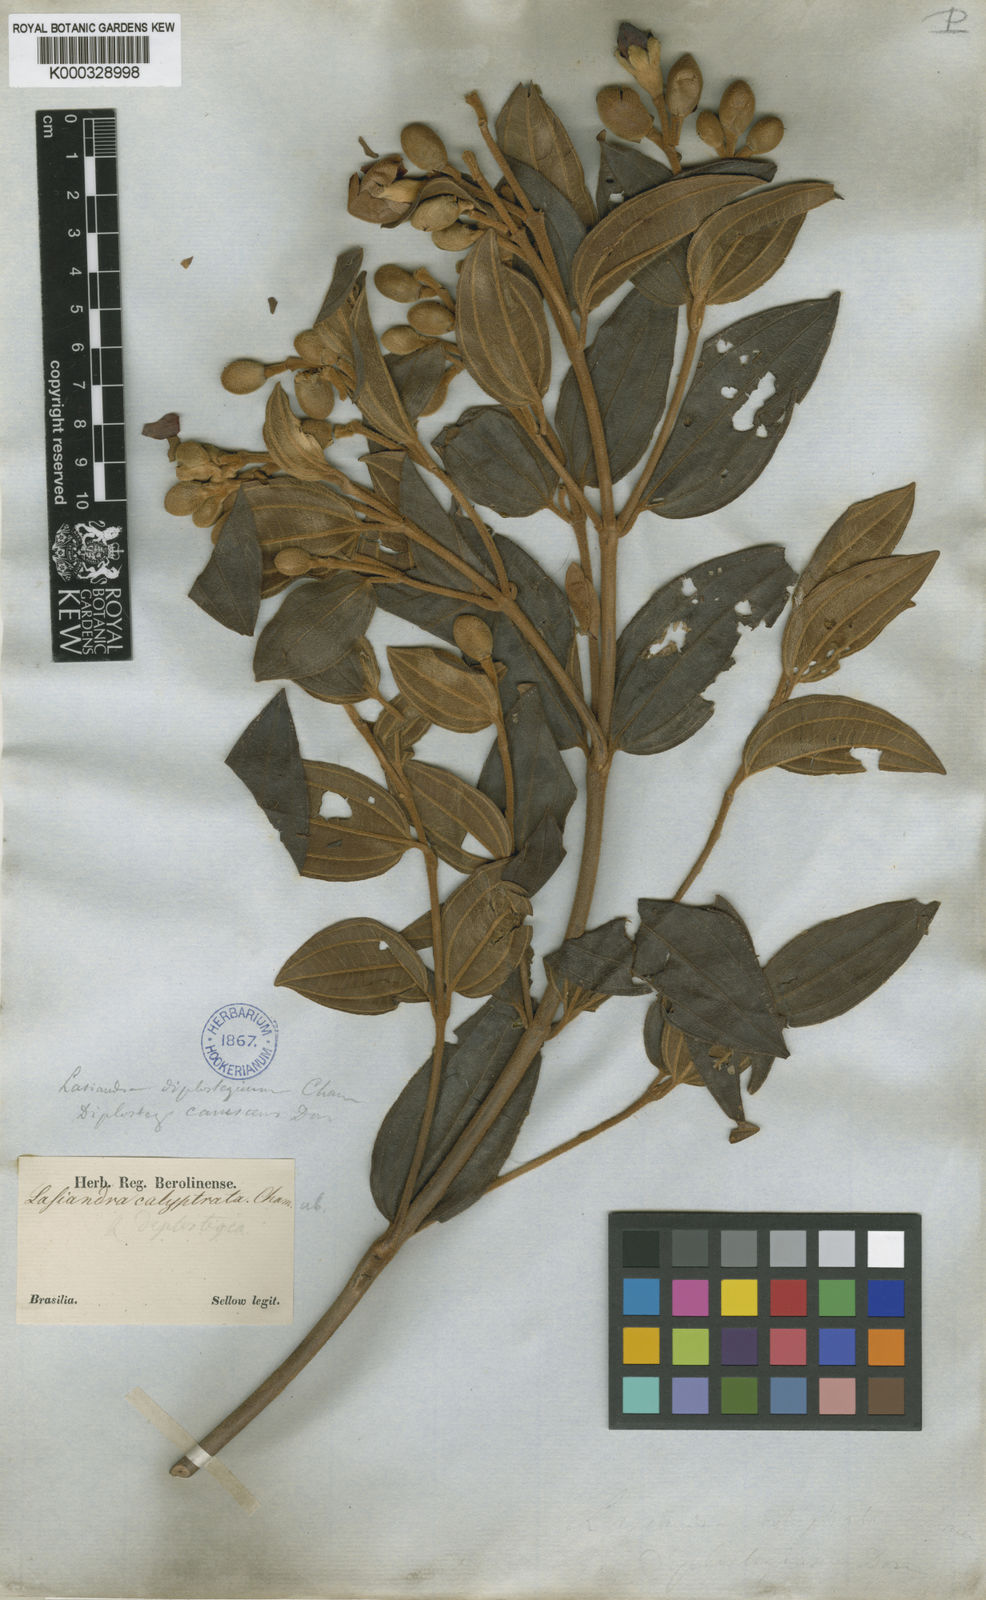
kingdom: Plantae
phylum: Tracheophyta
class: Magnoliopsida
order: Myrtales
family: Melastomataceae
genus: Pleroma
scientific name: Pleroma canescens
